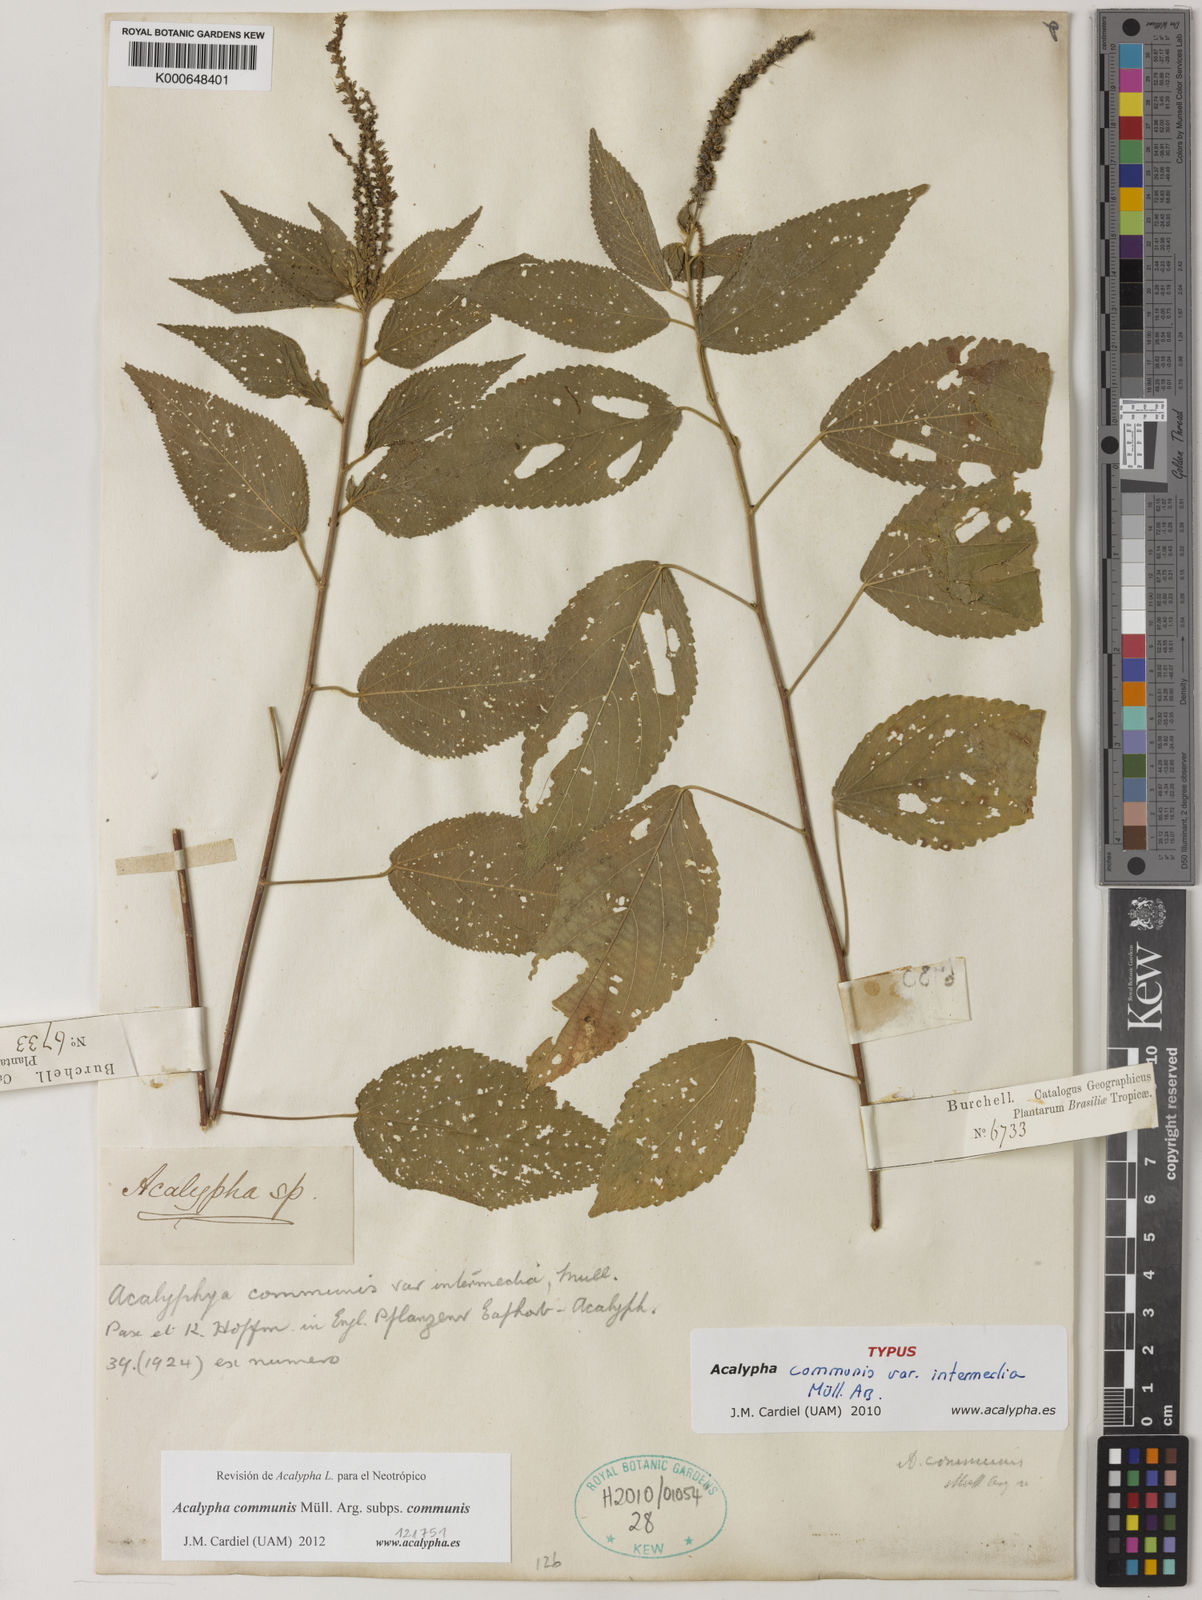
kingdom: Plantae
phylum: Tracheophyta
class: Magnoliopsida
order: Malpighiales
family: Euphorbiaceae
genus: Acalypha
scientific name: Acalypha
